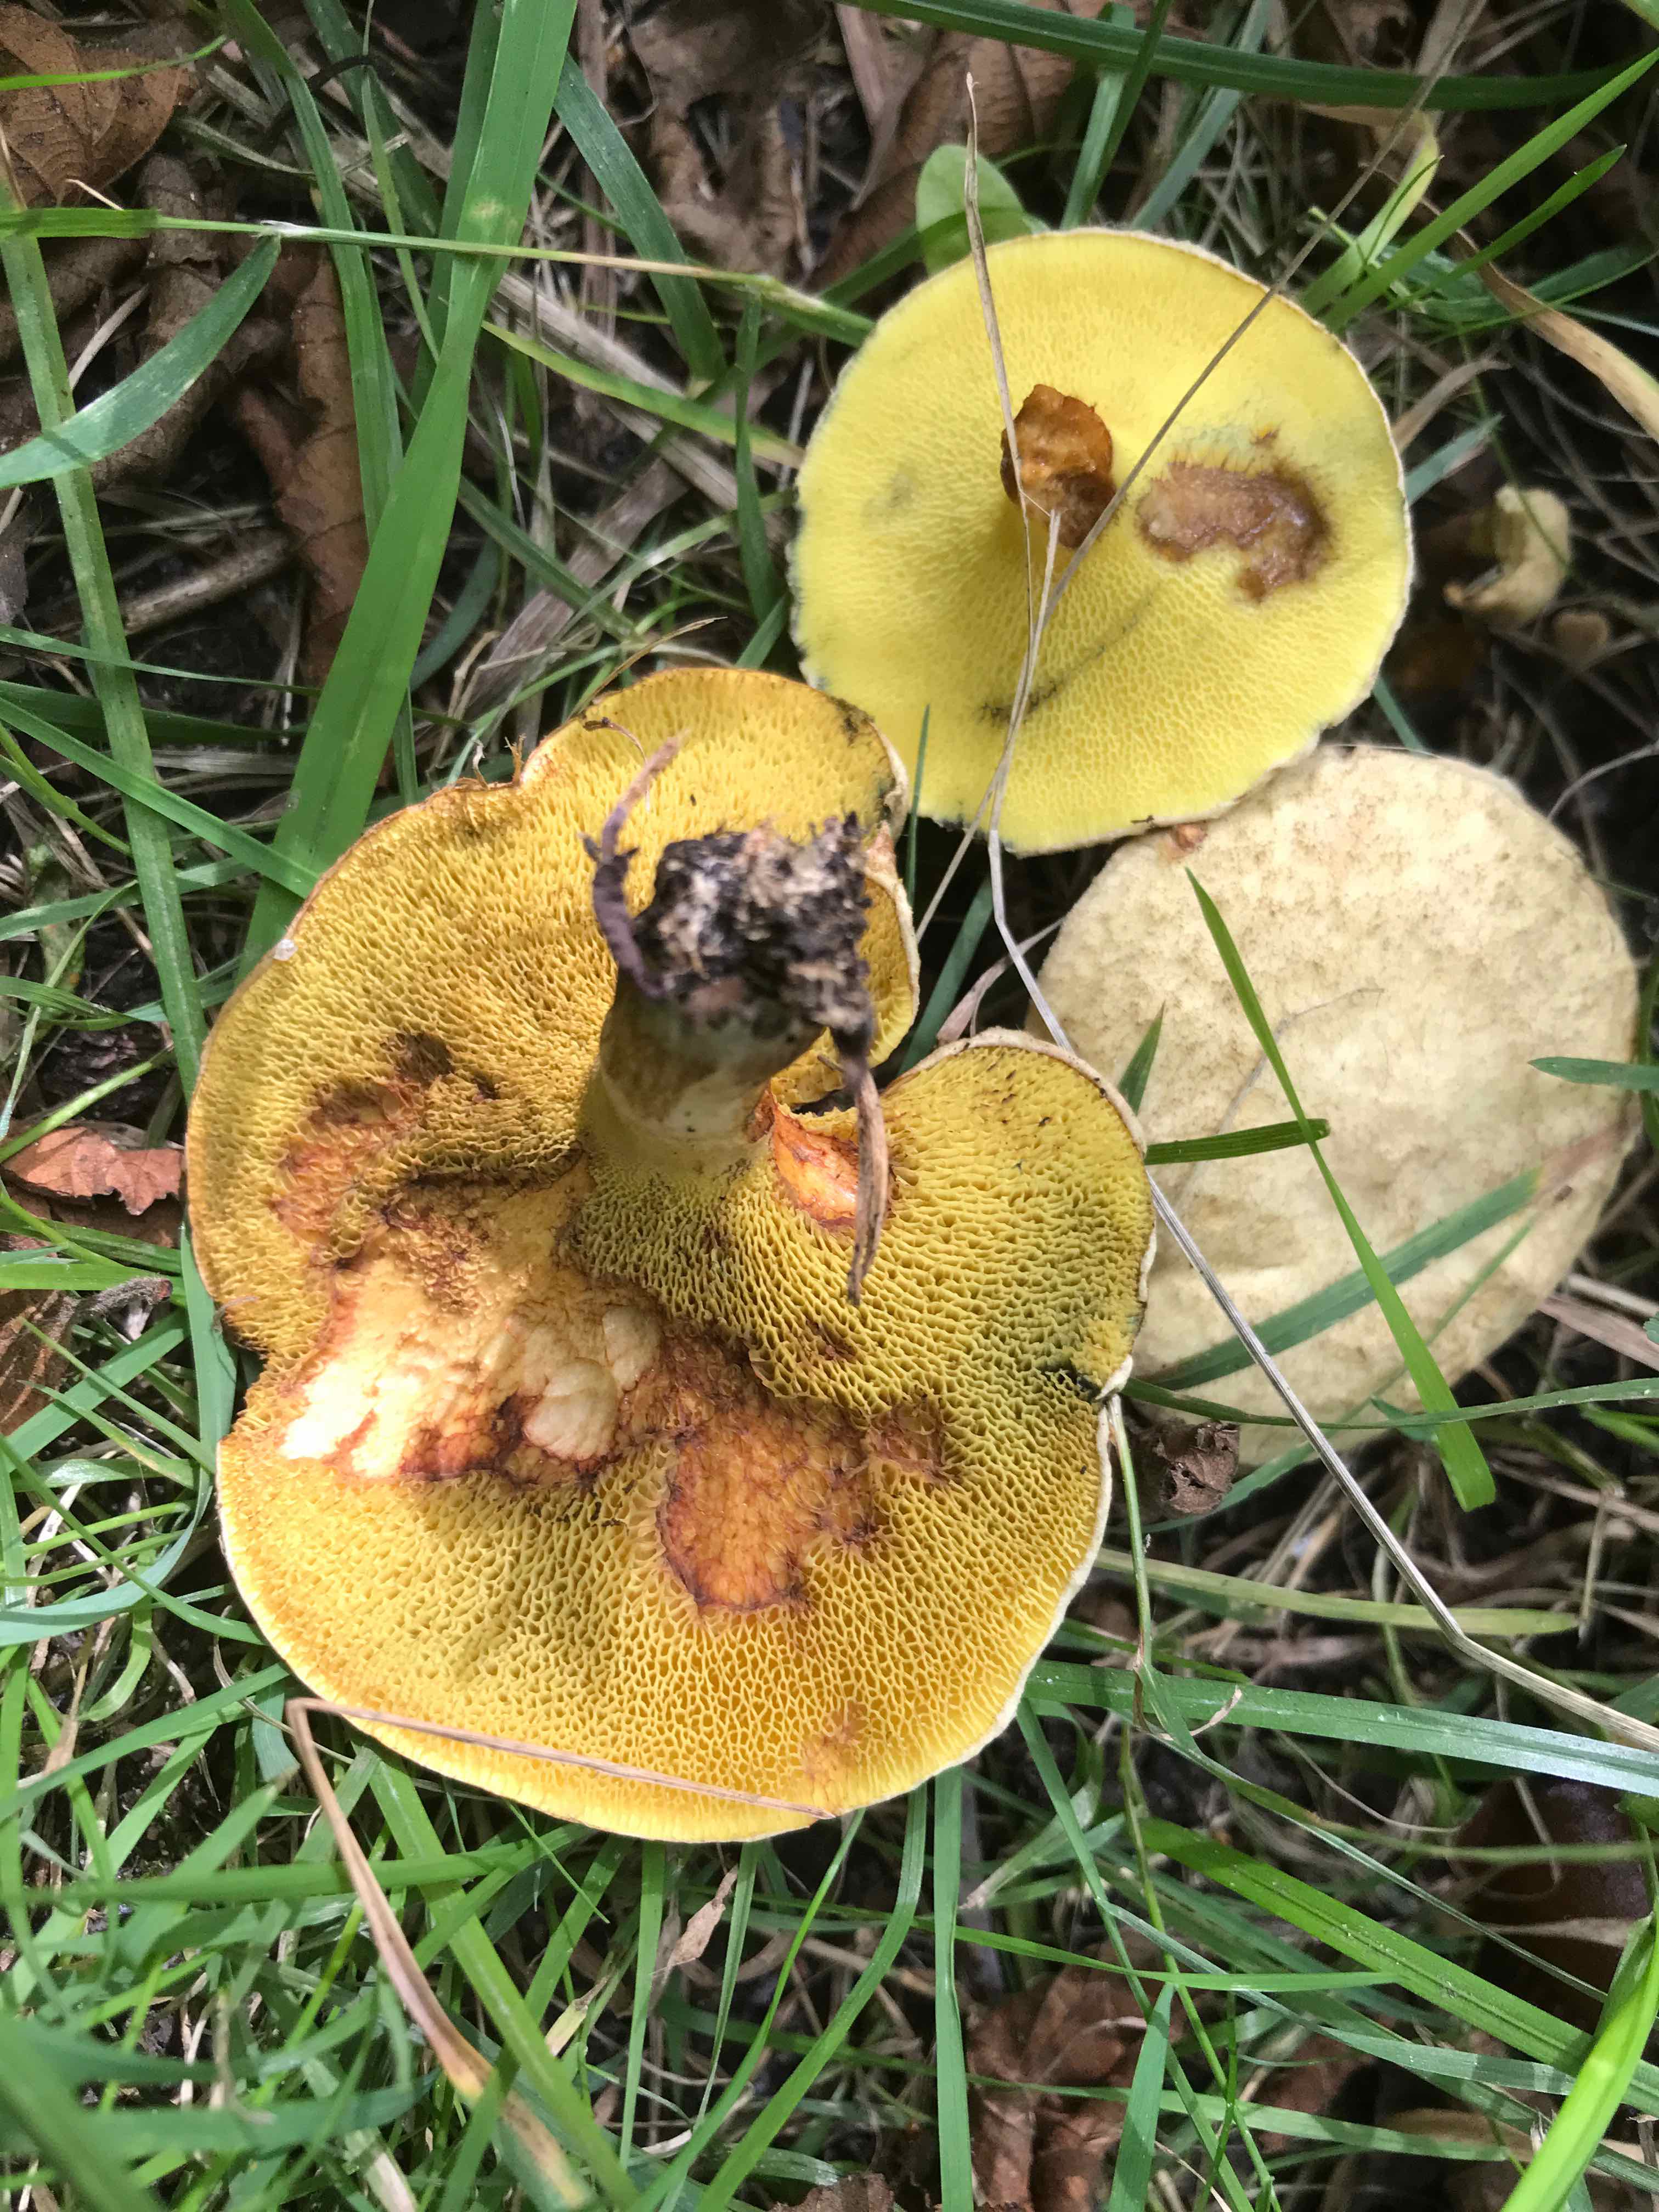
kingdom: Fungi
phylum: Basidiomycota
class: Agaricomycetes
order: Boletales
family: Paxillaceae
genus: Gyrodon
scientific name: Gyrodon lividus
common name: ellerørhat
